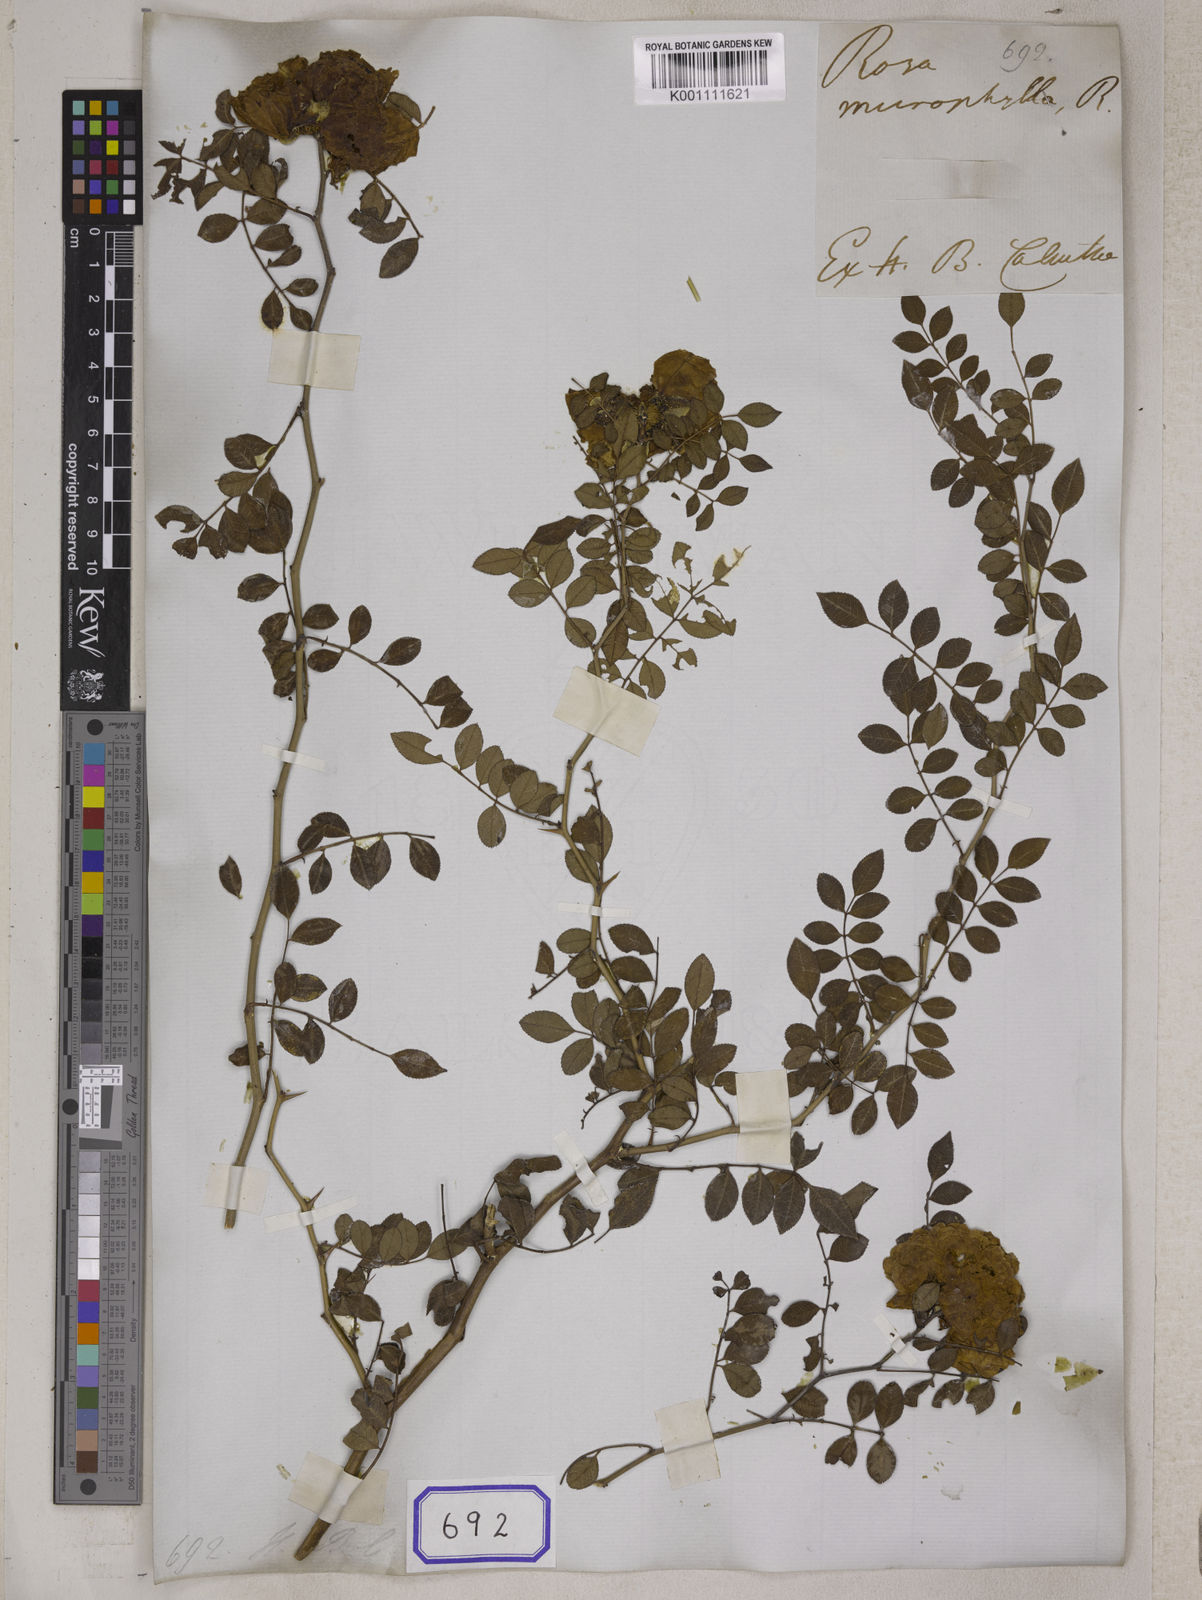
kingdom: Plantae
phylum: Tracheophyta
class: Magnoliopsida
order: Rosales
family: Rosaceae
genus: Rosa
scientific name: Rosa
